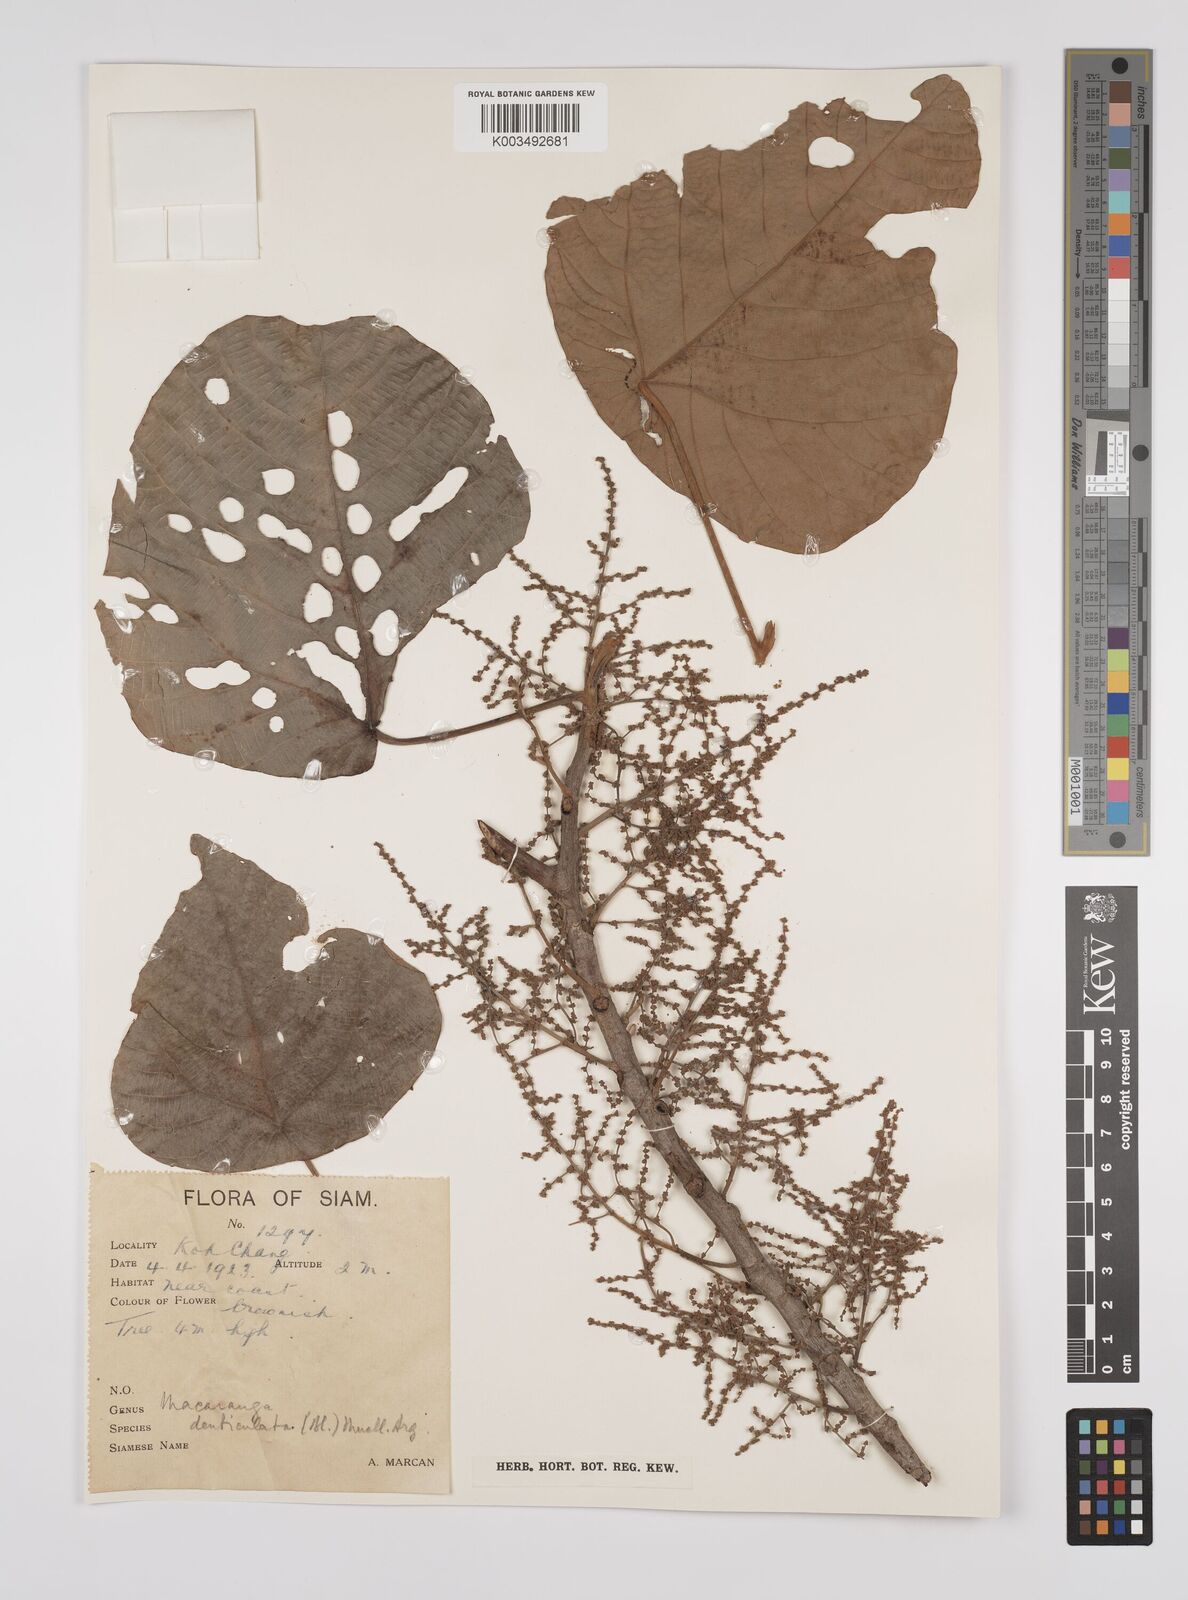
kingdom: Plantae
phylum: Tracheophyta
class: Magnoliopsida
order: Malpighiales
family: Euphorbiaceae
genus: Macaranga
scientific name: Macaranga denticulata
